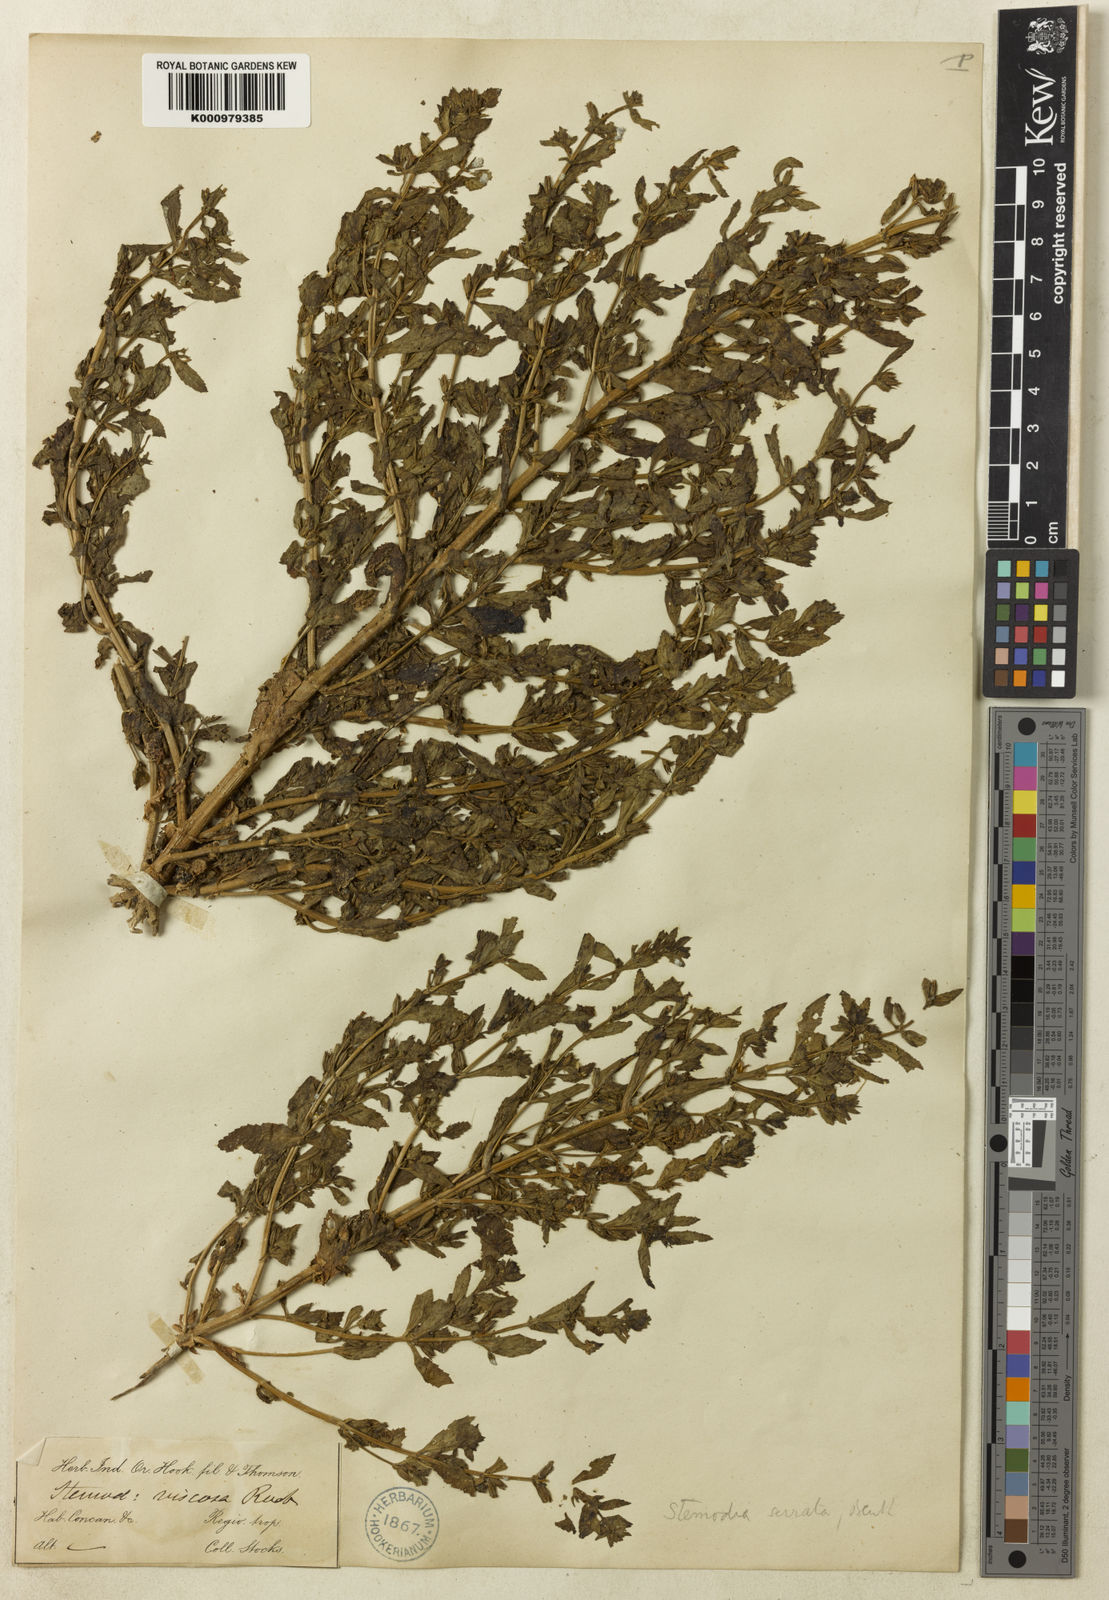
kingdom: Plantae
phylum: Tracheophyta
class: Magnoliopsida
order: Lamiales
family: Plantaginaceae
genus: Stemodia
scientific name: Stemodia serrata
